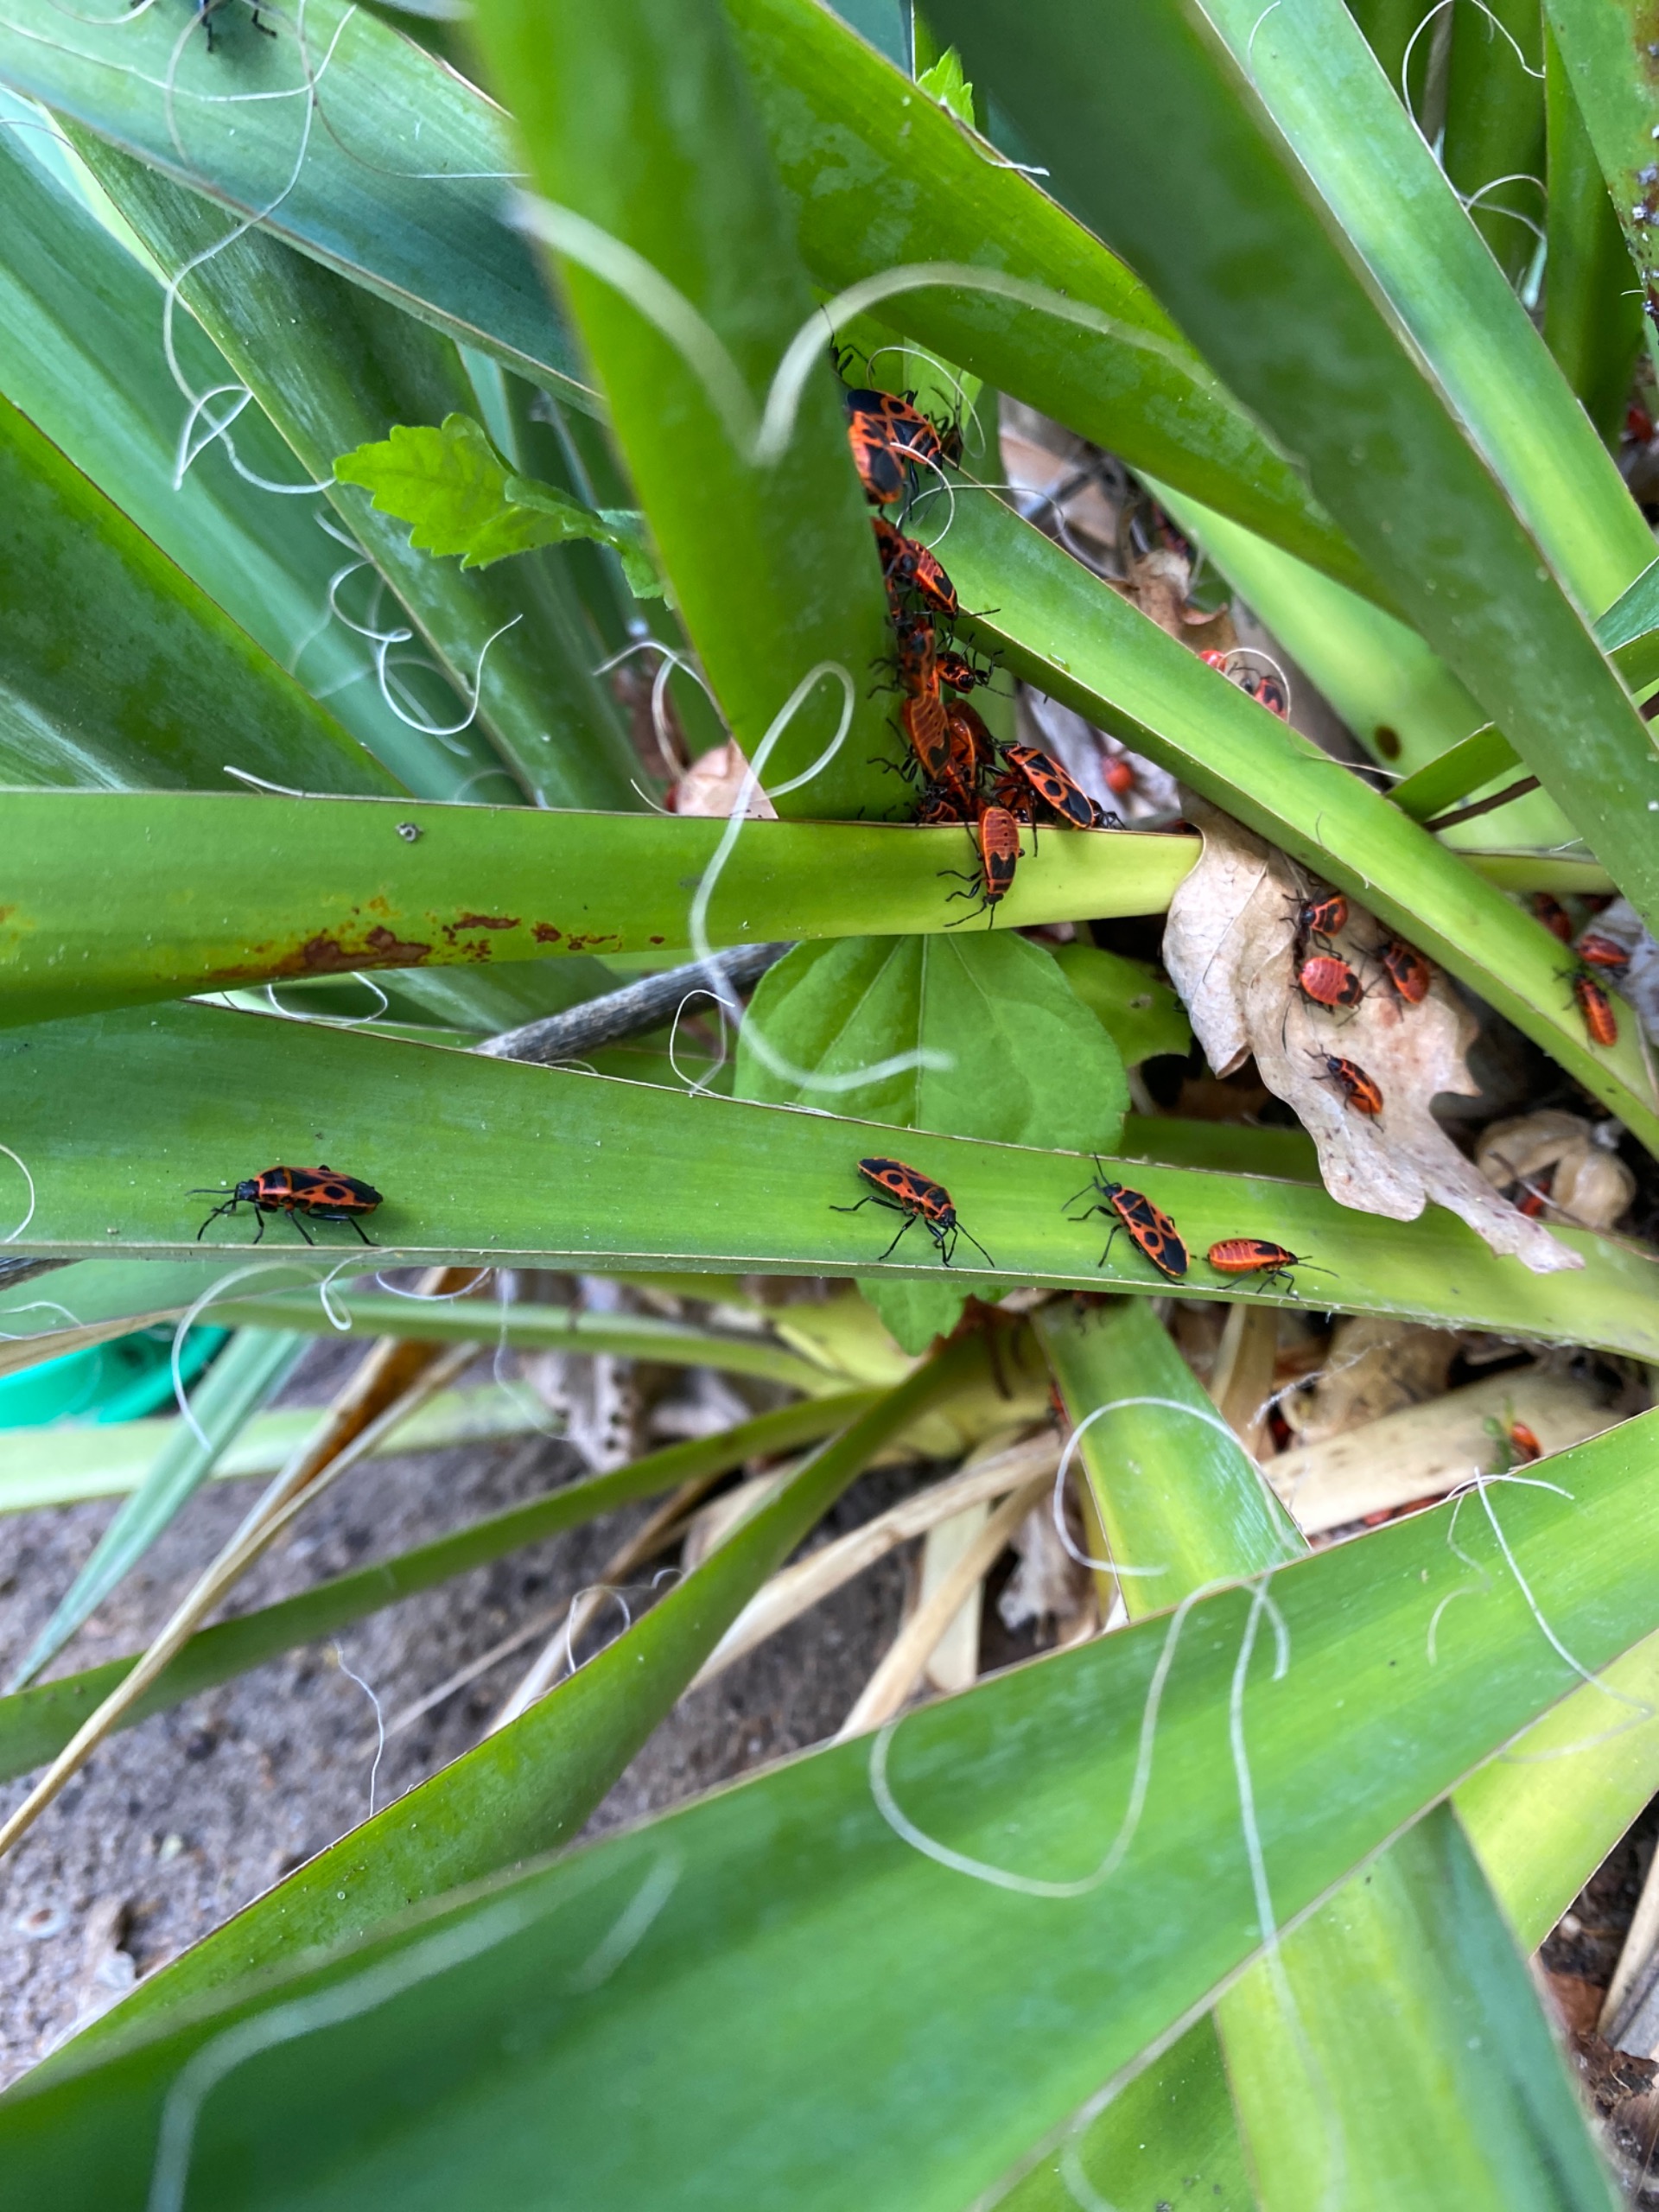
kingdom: Animalia
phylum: Arthropoda
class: Insecta
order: Hemiptera
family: Pyrrhocoridae
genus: Pyrrhocoris
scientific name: Pyrrhocoris apterus
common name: Ildtæge
